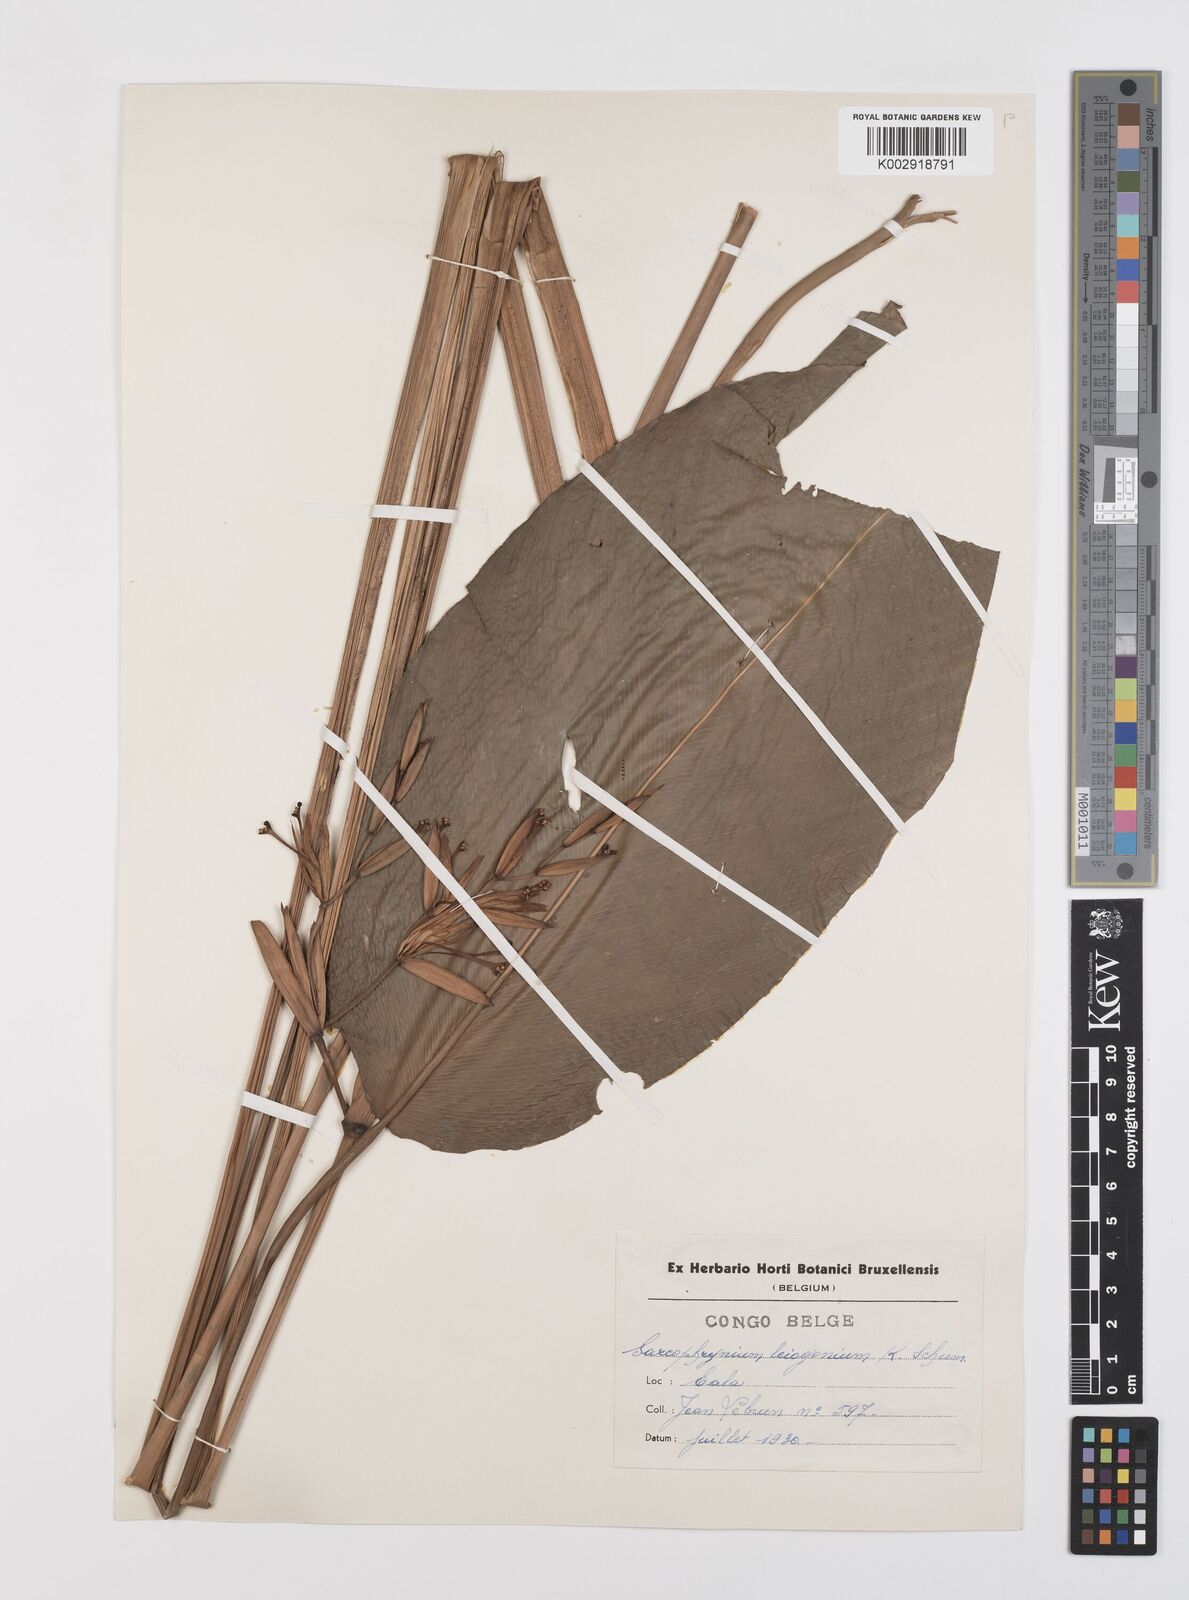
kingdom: Plantae
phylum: Tracheophyta
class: Liliopsida
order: Zingiberales
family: Marantaceae
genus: Sarcophrynium
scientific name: Sarcophrynium schweinfurthianum
